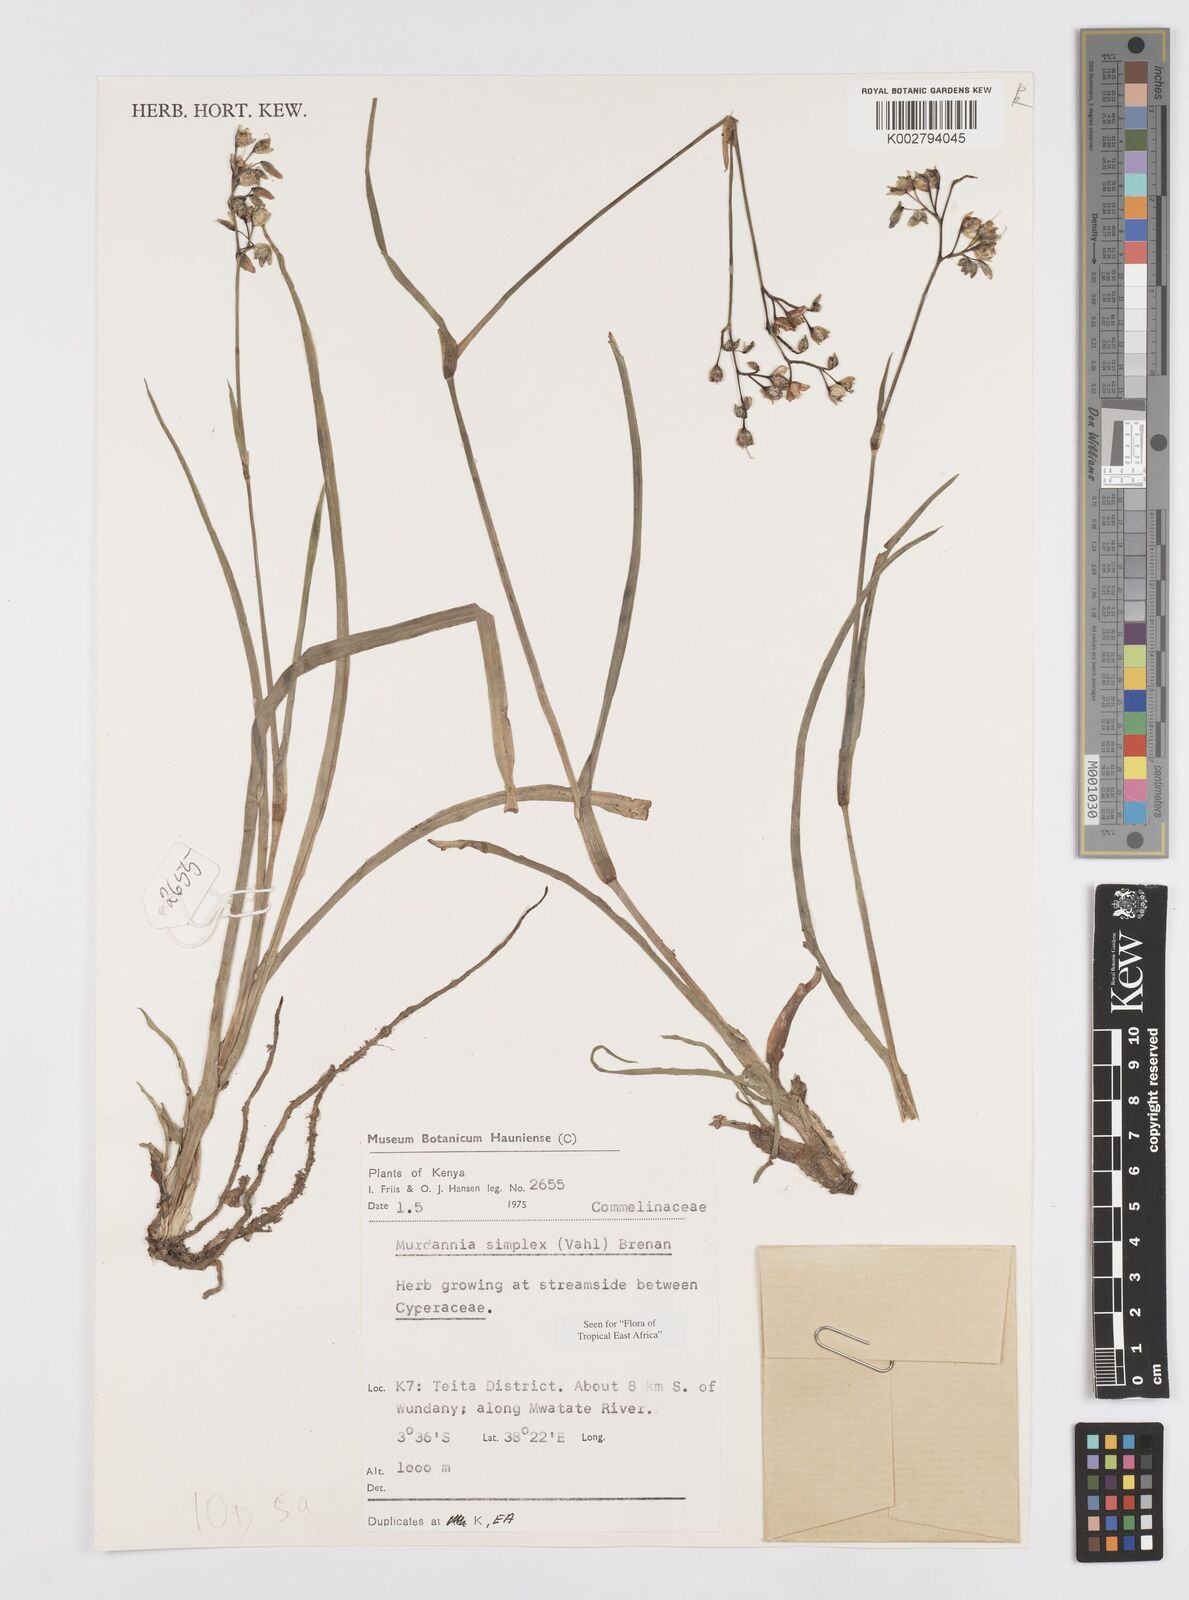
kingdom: Plantae
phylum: Tracheophyta
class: Liliopsida
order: Commelinales
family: Commelinaceae
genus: Murdannia
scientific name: Murdannia simplex
